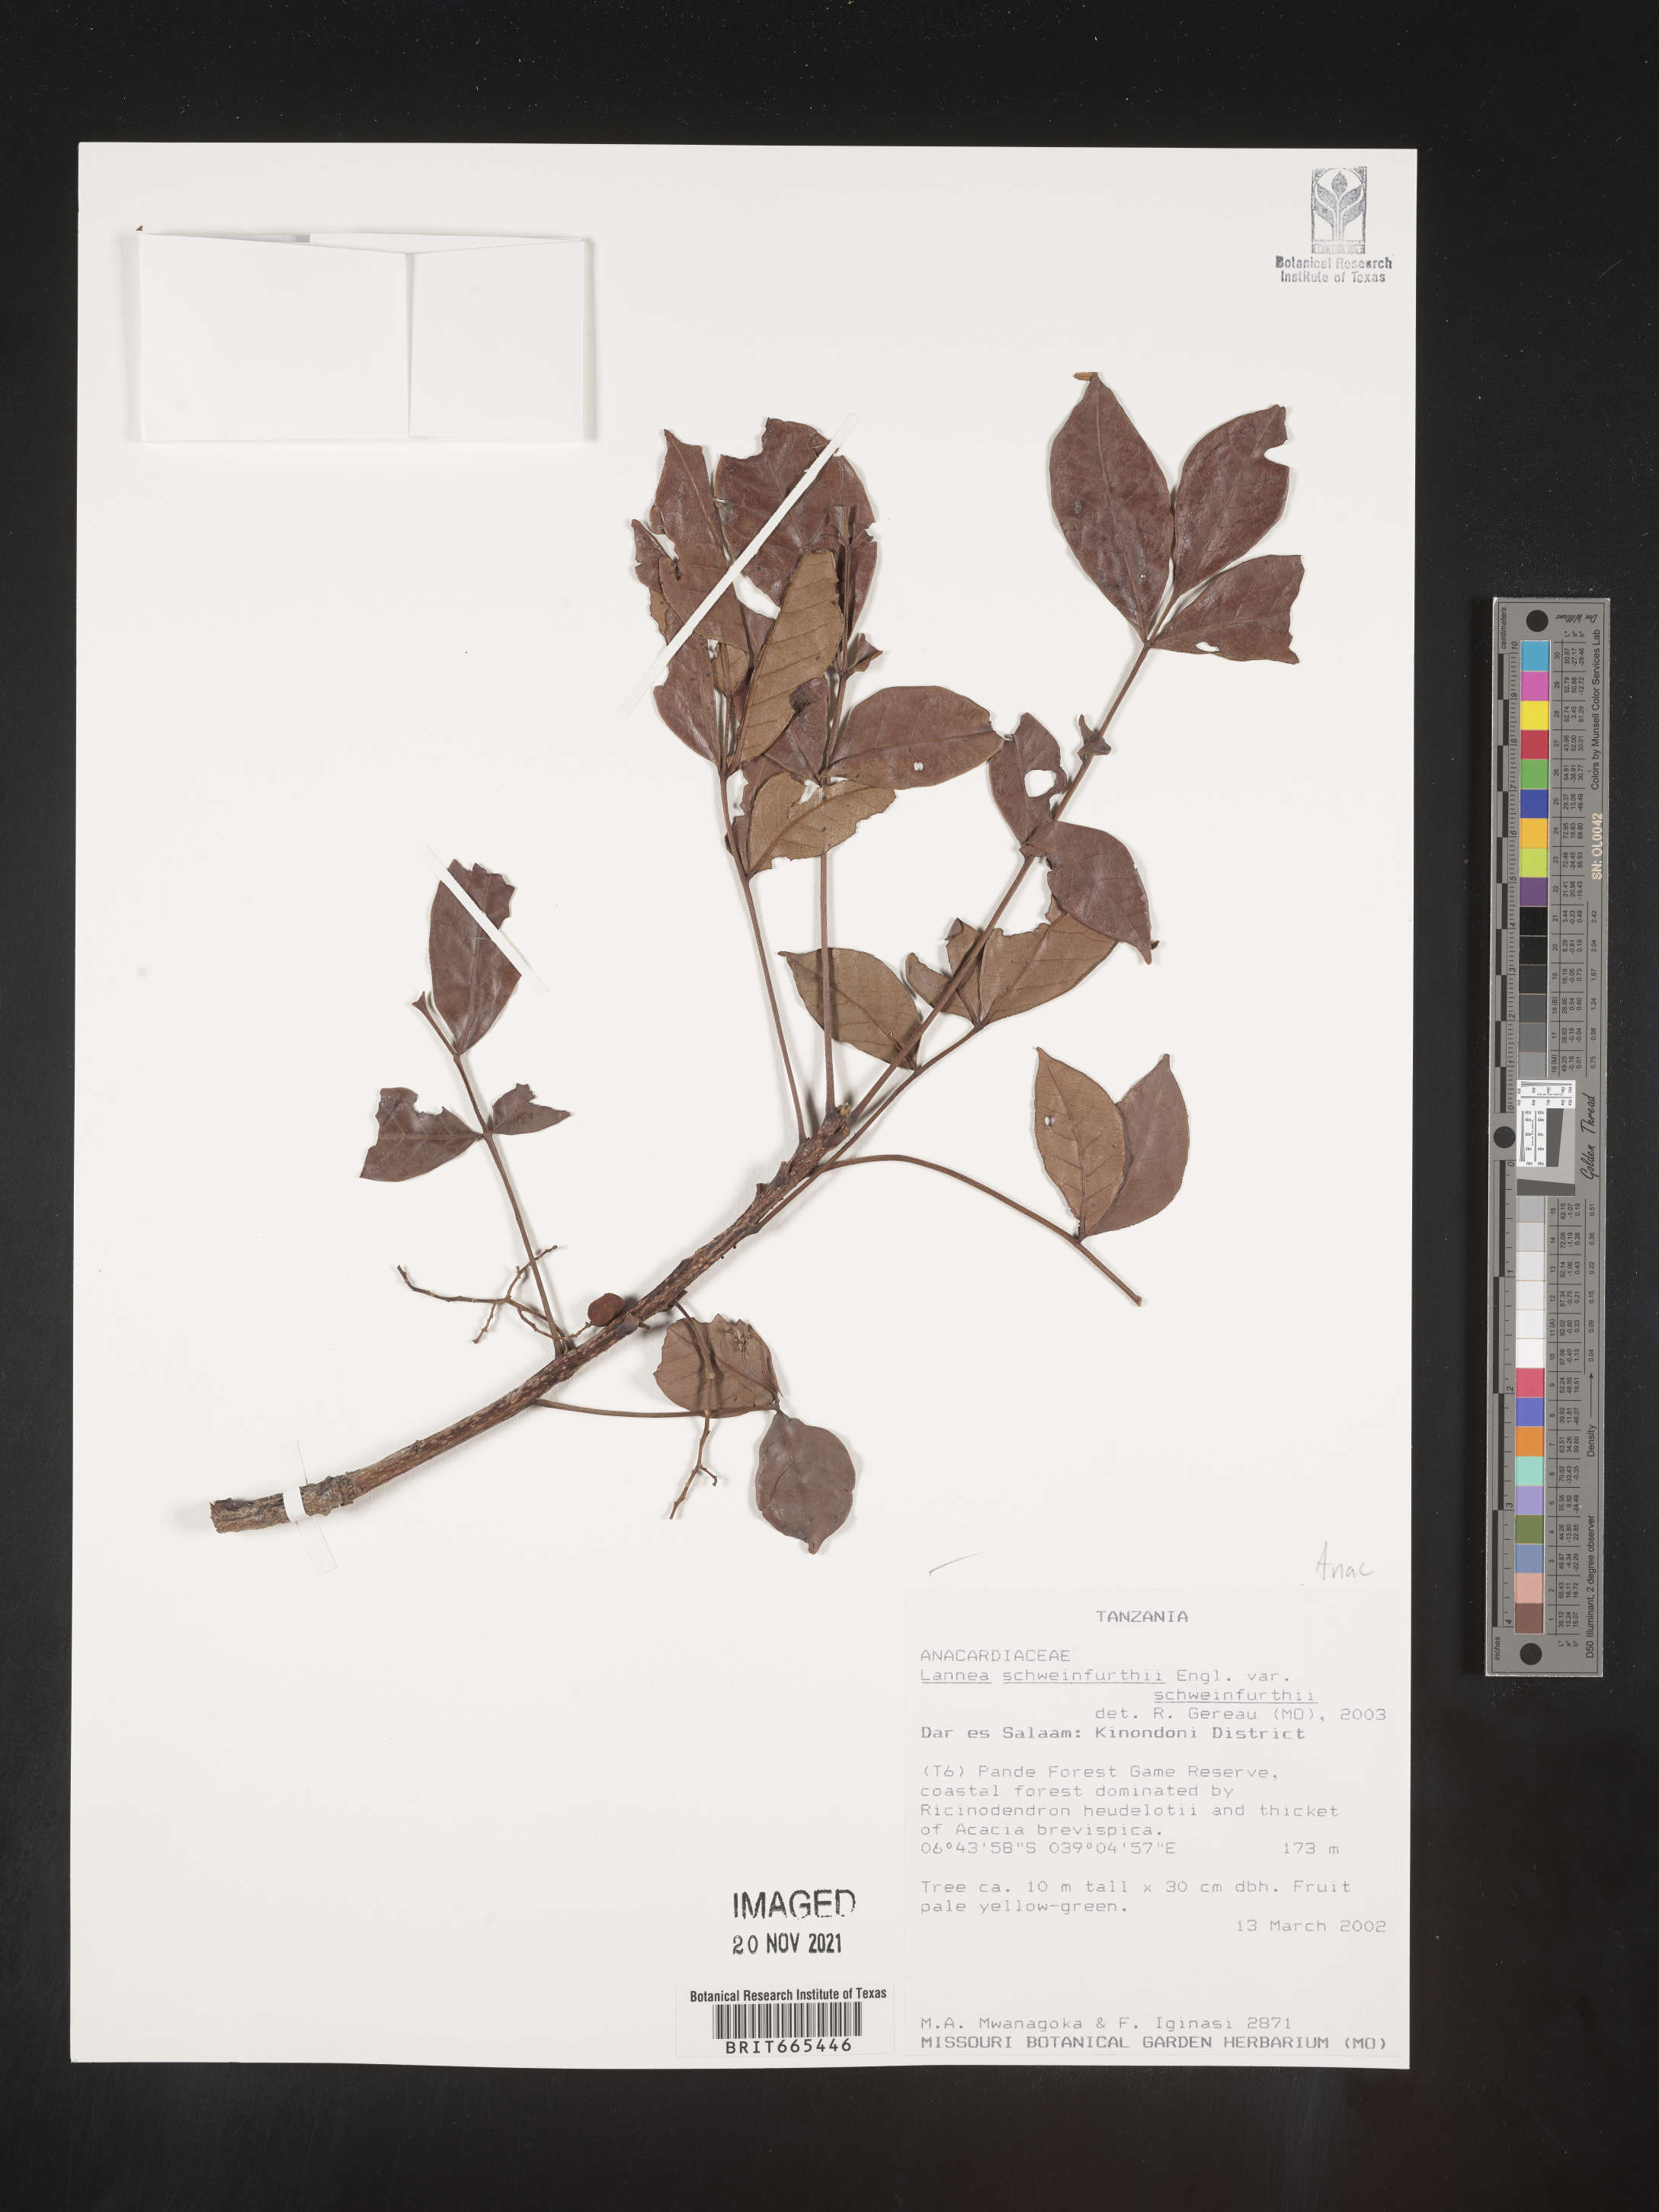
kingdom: Plantae
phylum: Tracheophyta
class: Magnoliopsida
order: Sapindales
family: Anacardiaceae
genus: Lannea
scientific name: Lannea schweinfurthii
